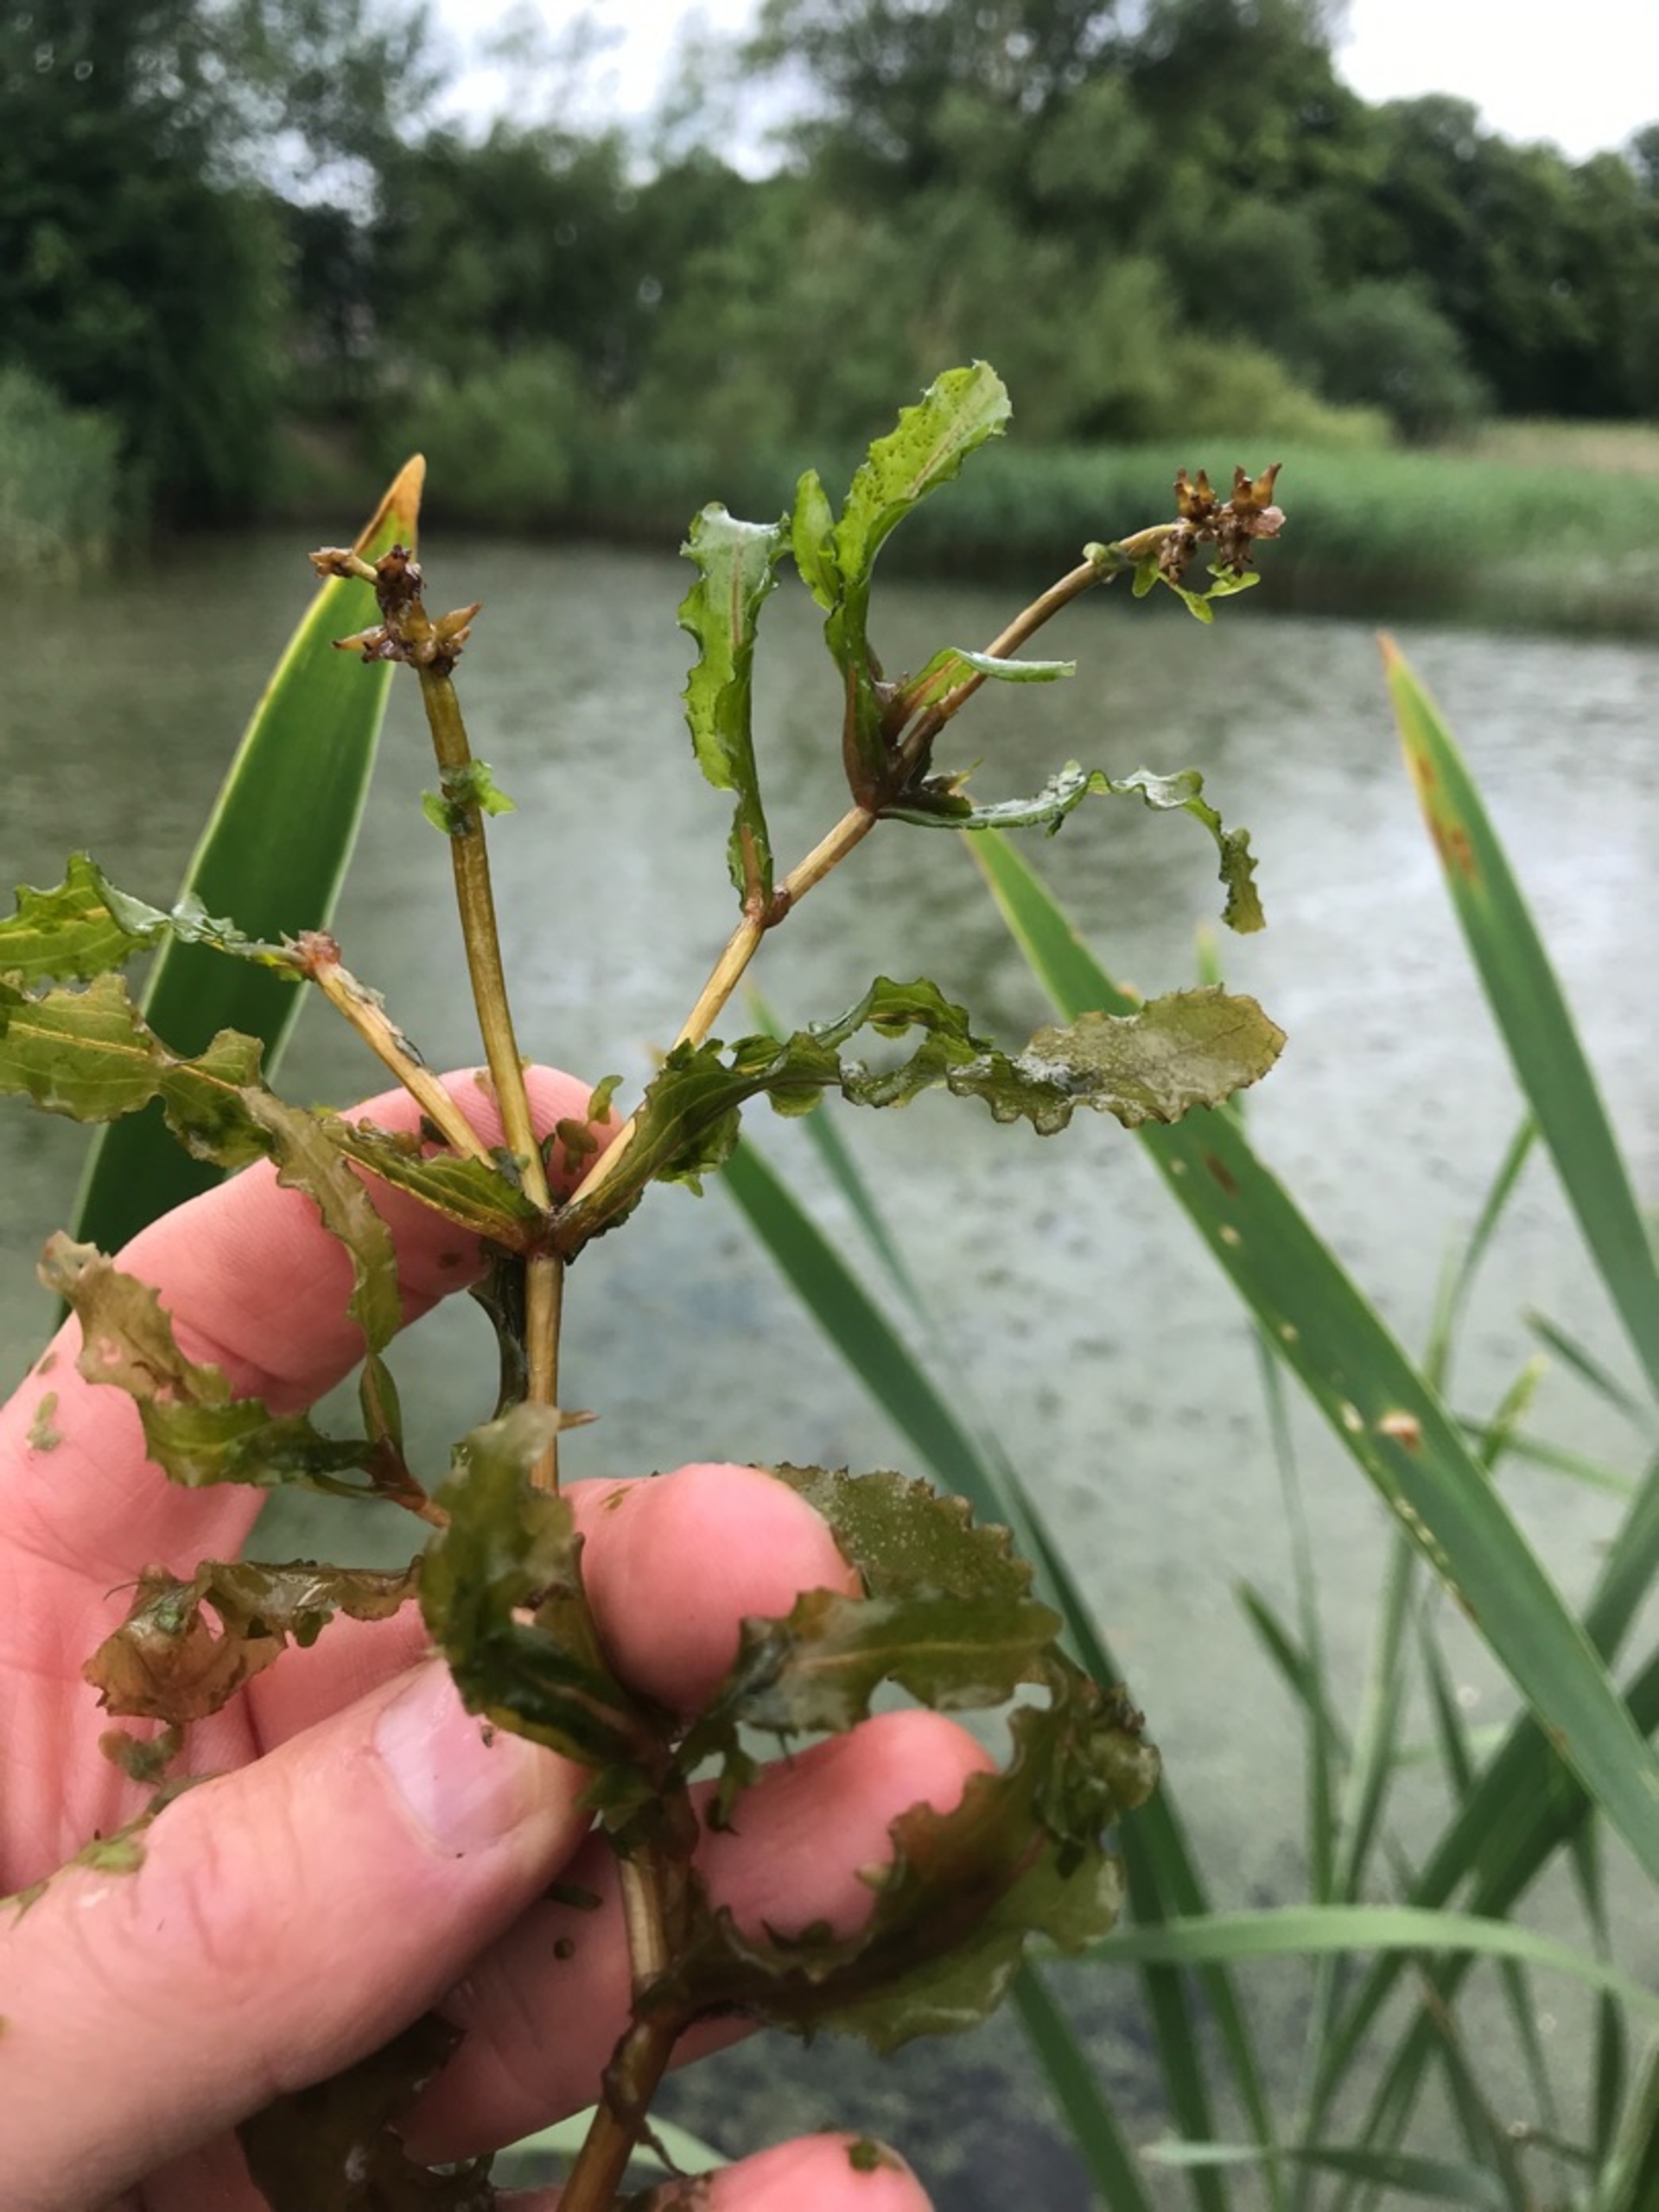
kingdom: Plantae
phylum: Tracheophyta
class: Liliopsida
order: Alismatales
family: Potamogetonaceae
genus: Potamogeton
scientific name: Potamogeton crispus
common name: Kruset vandaks
